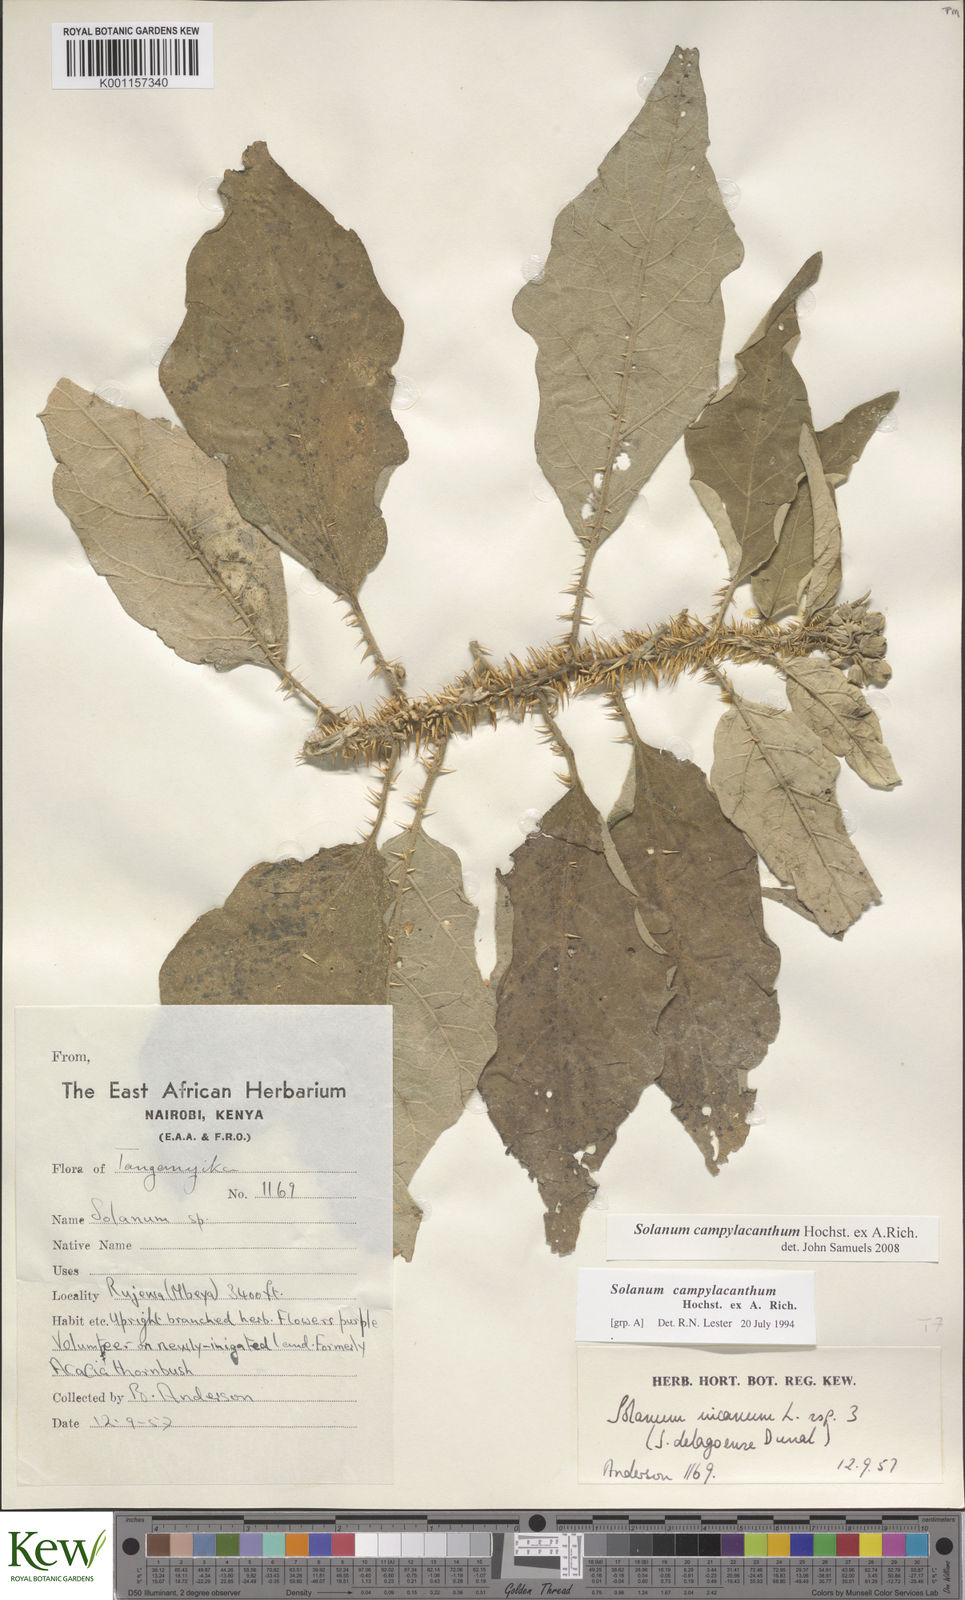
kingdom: Plantae
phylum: Tracheophyta
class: Magnoliopsida
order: Solanales
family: Solanaceae
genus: Solanum
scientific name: Solanum campylacanthum
